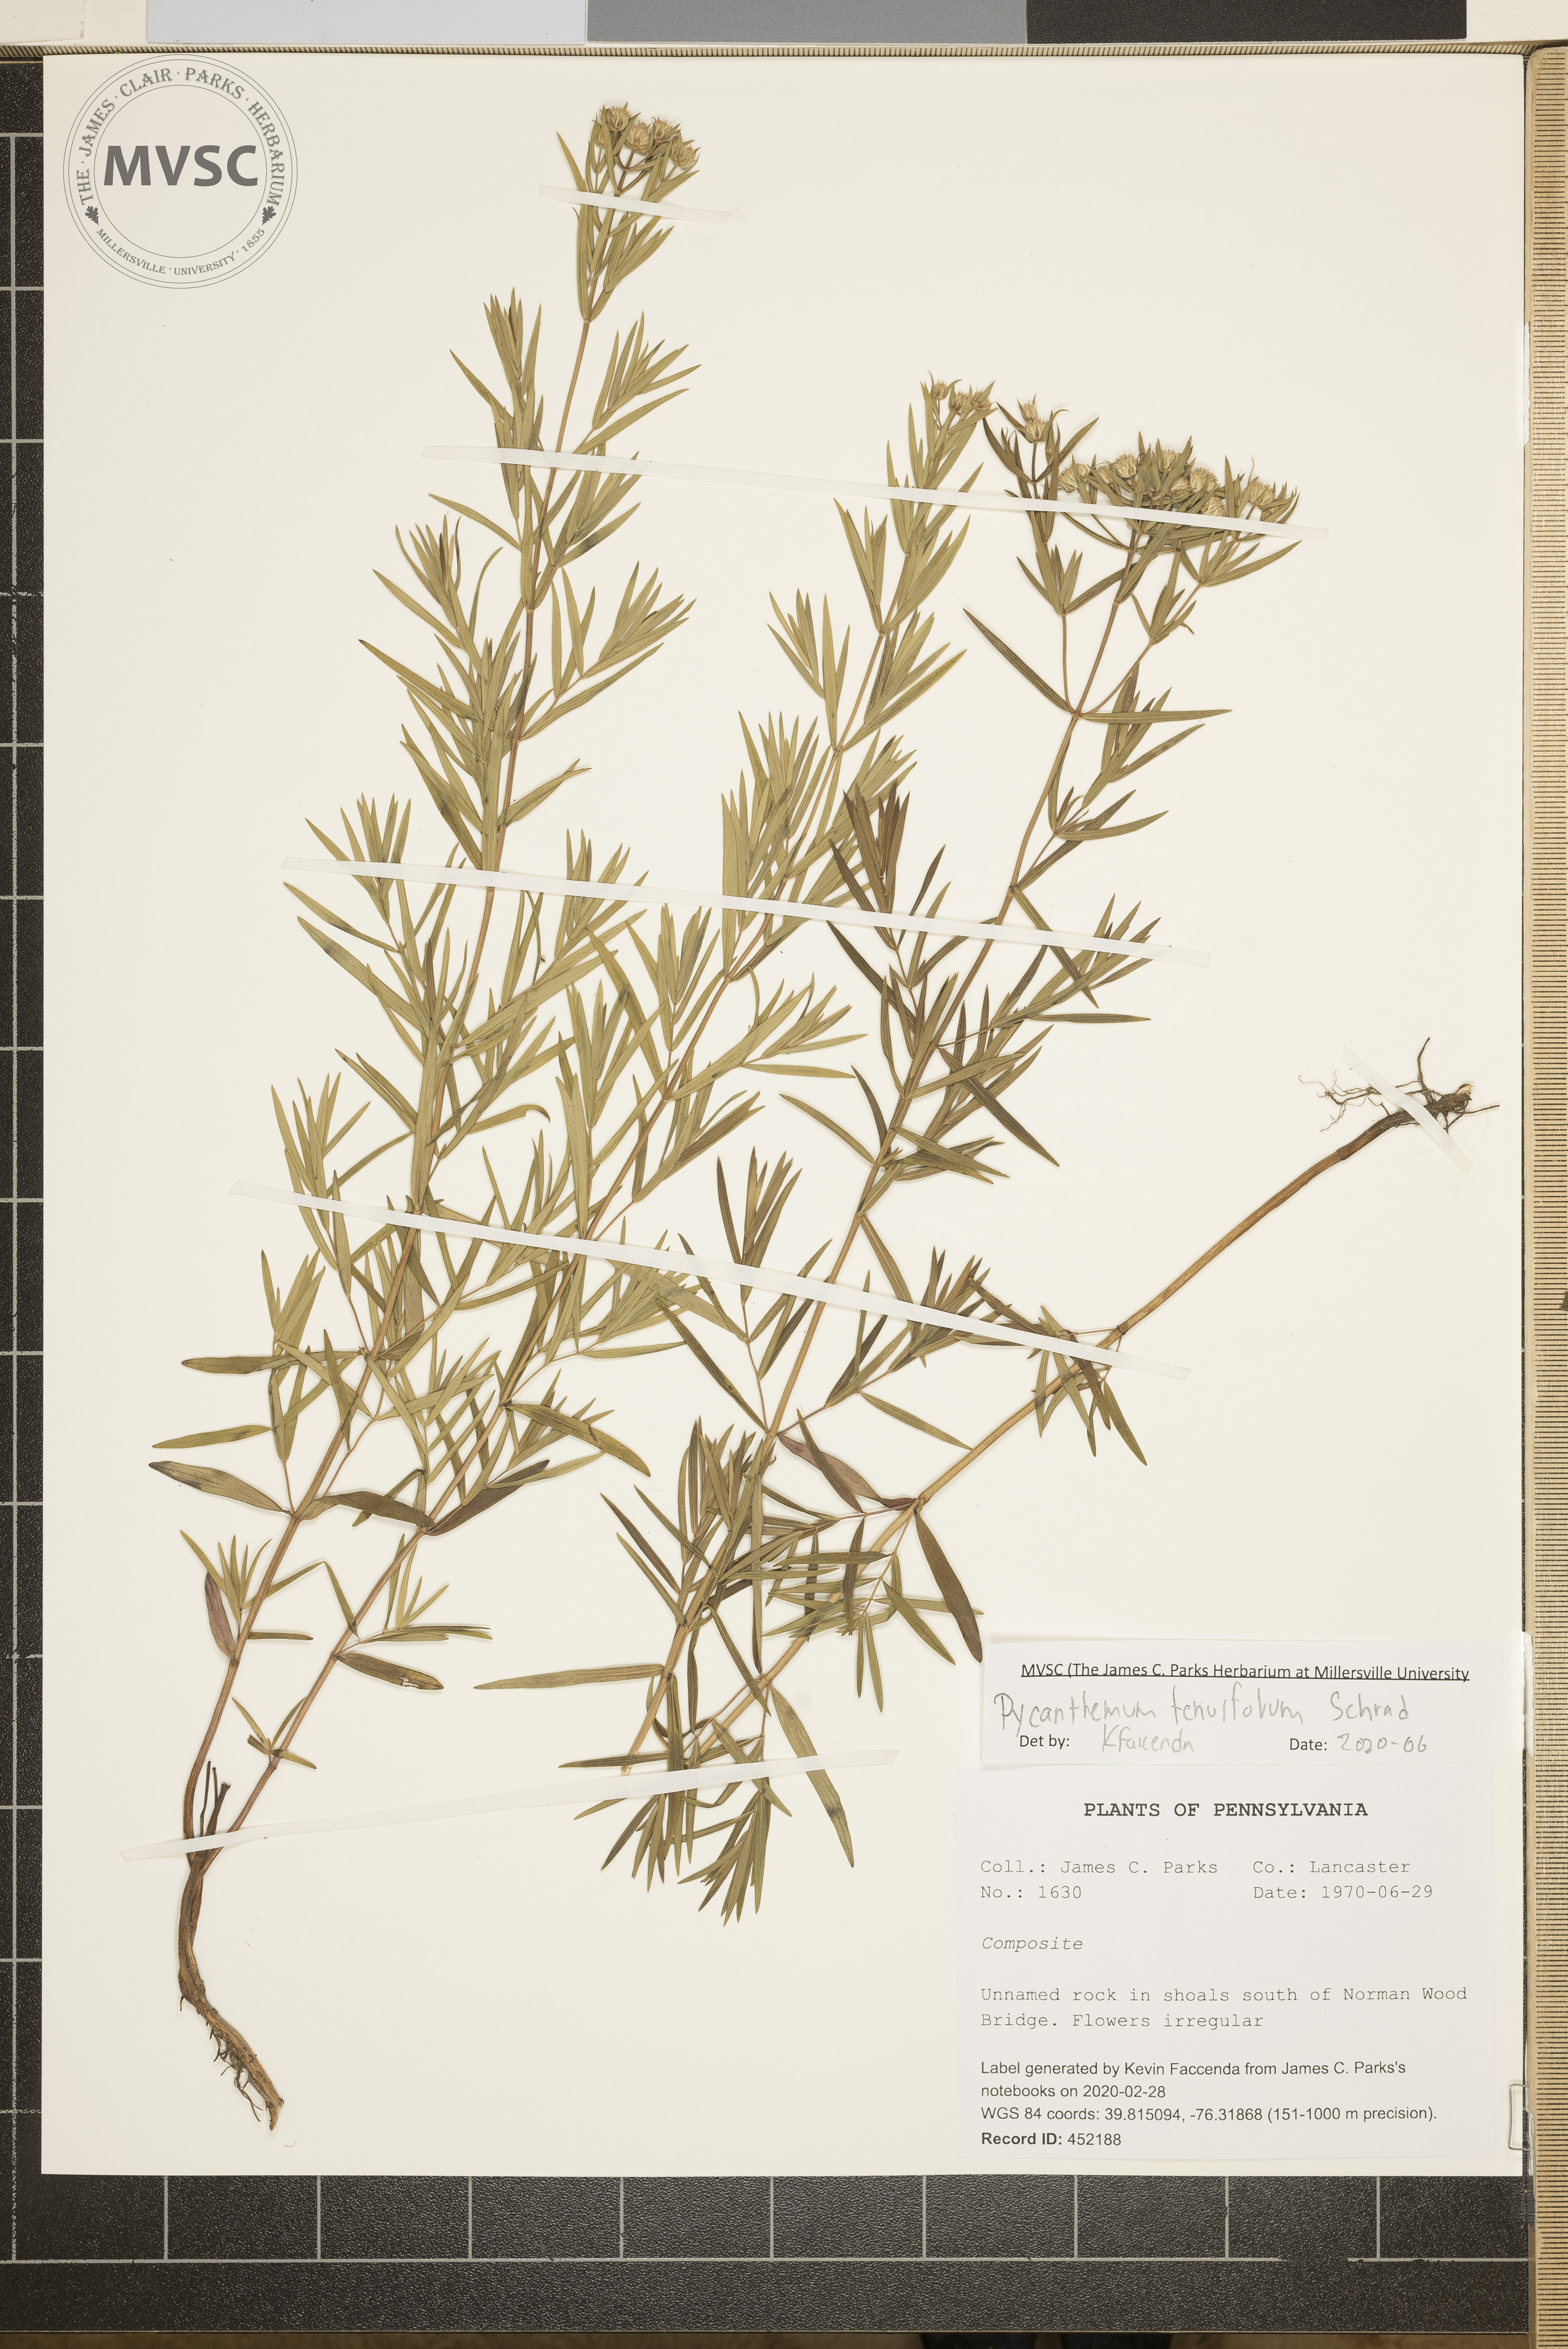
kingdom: Plantae
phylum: Tracheophyta
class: Magnoliopsida
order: Lamiales
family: Lamiaceae
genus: Pycnanthemum
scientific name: Pycnanthemum tenuifolium
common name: Narrow-leaf mountain-mint
